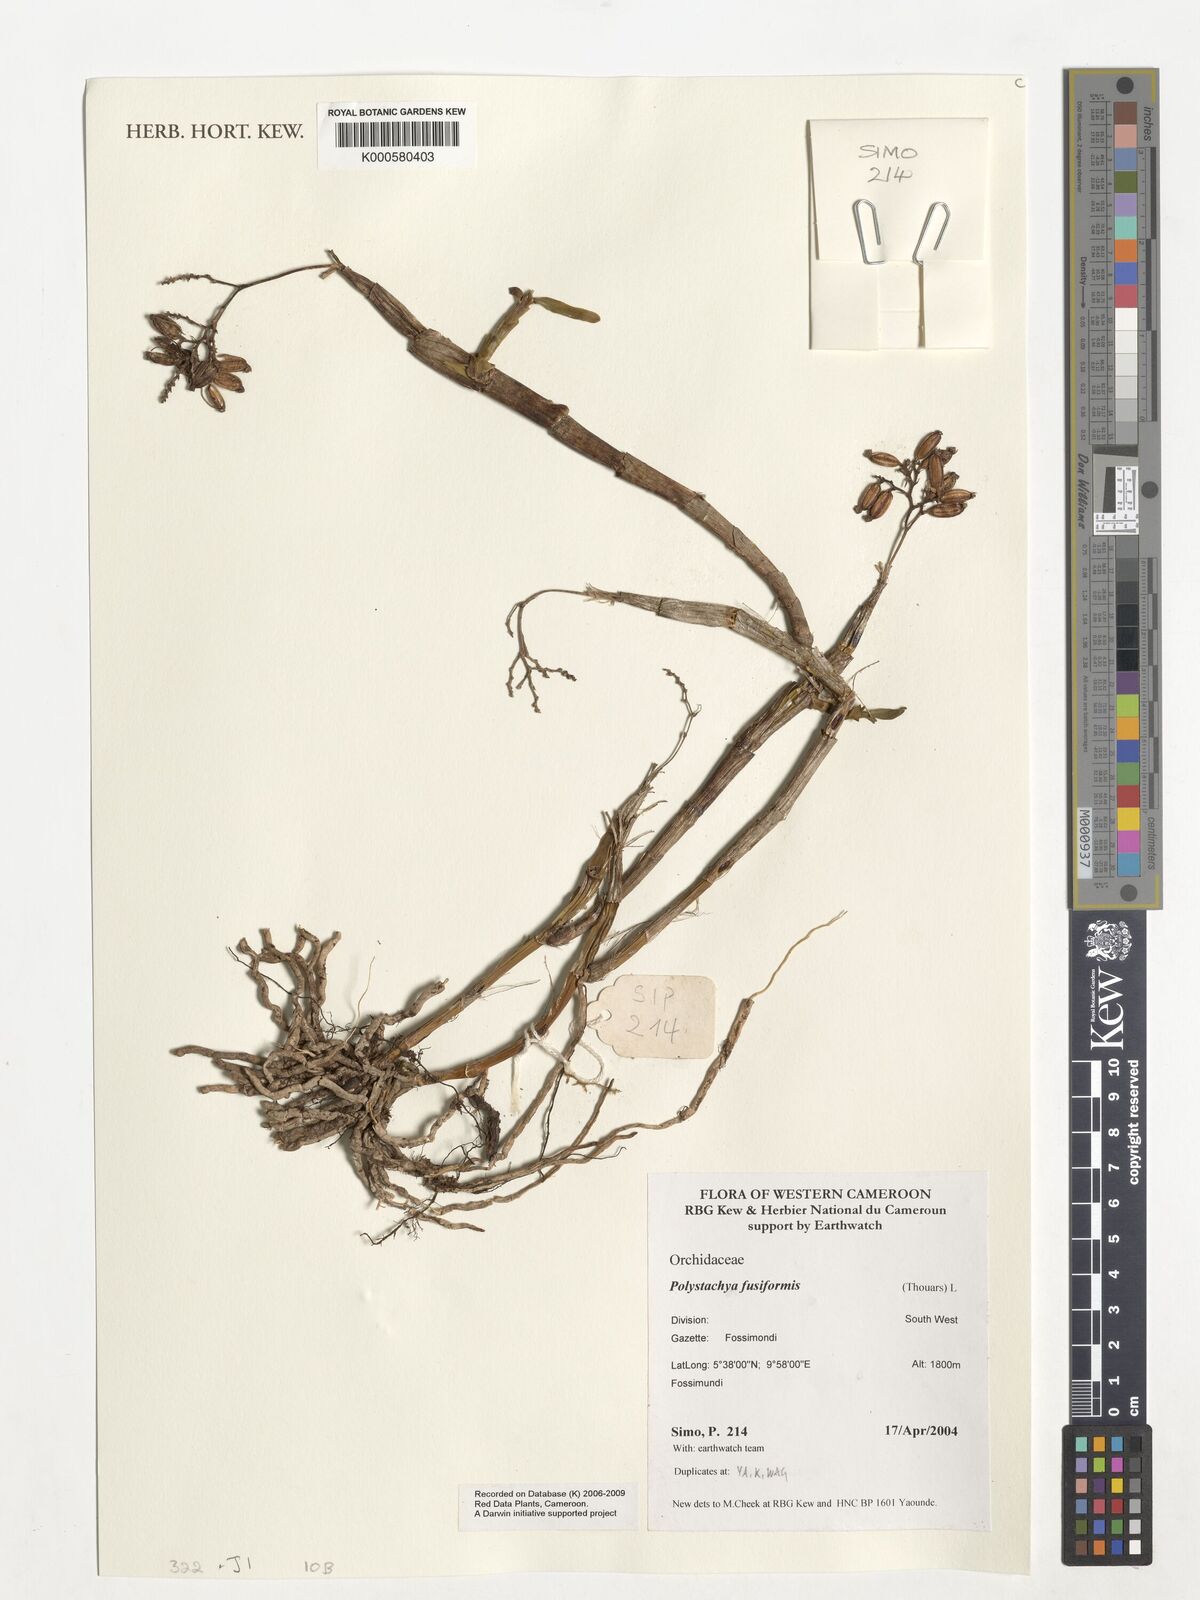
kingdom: Plantae
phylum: Tracheophyta
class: Liliopsida
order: Asparagales
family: Orchidaceae
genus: Polystachya
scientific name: Polystachya fusiformis
